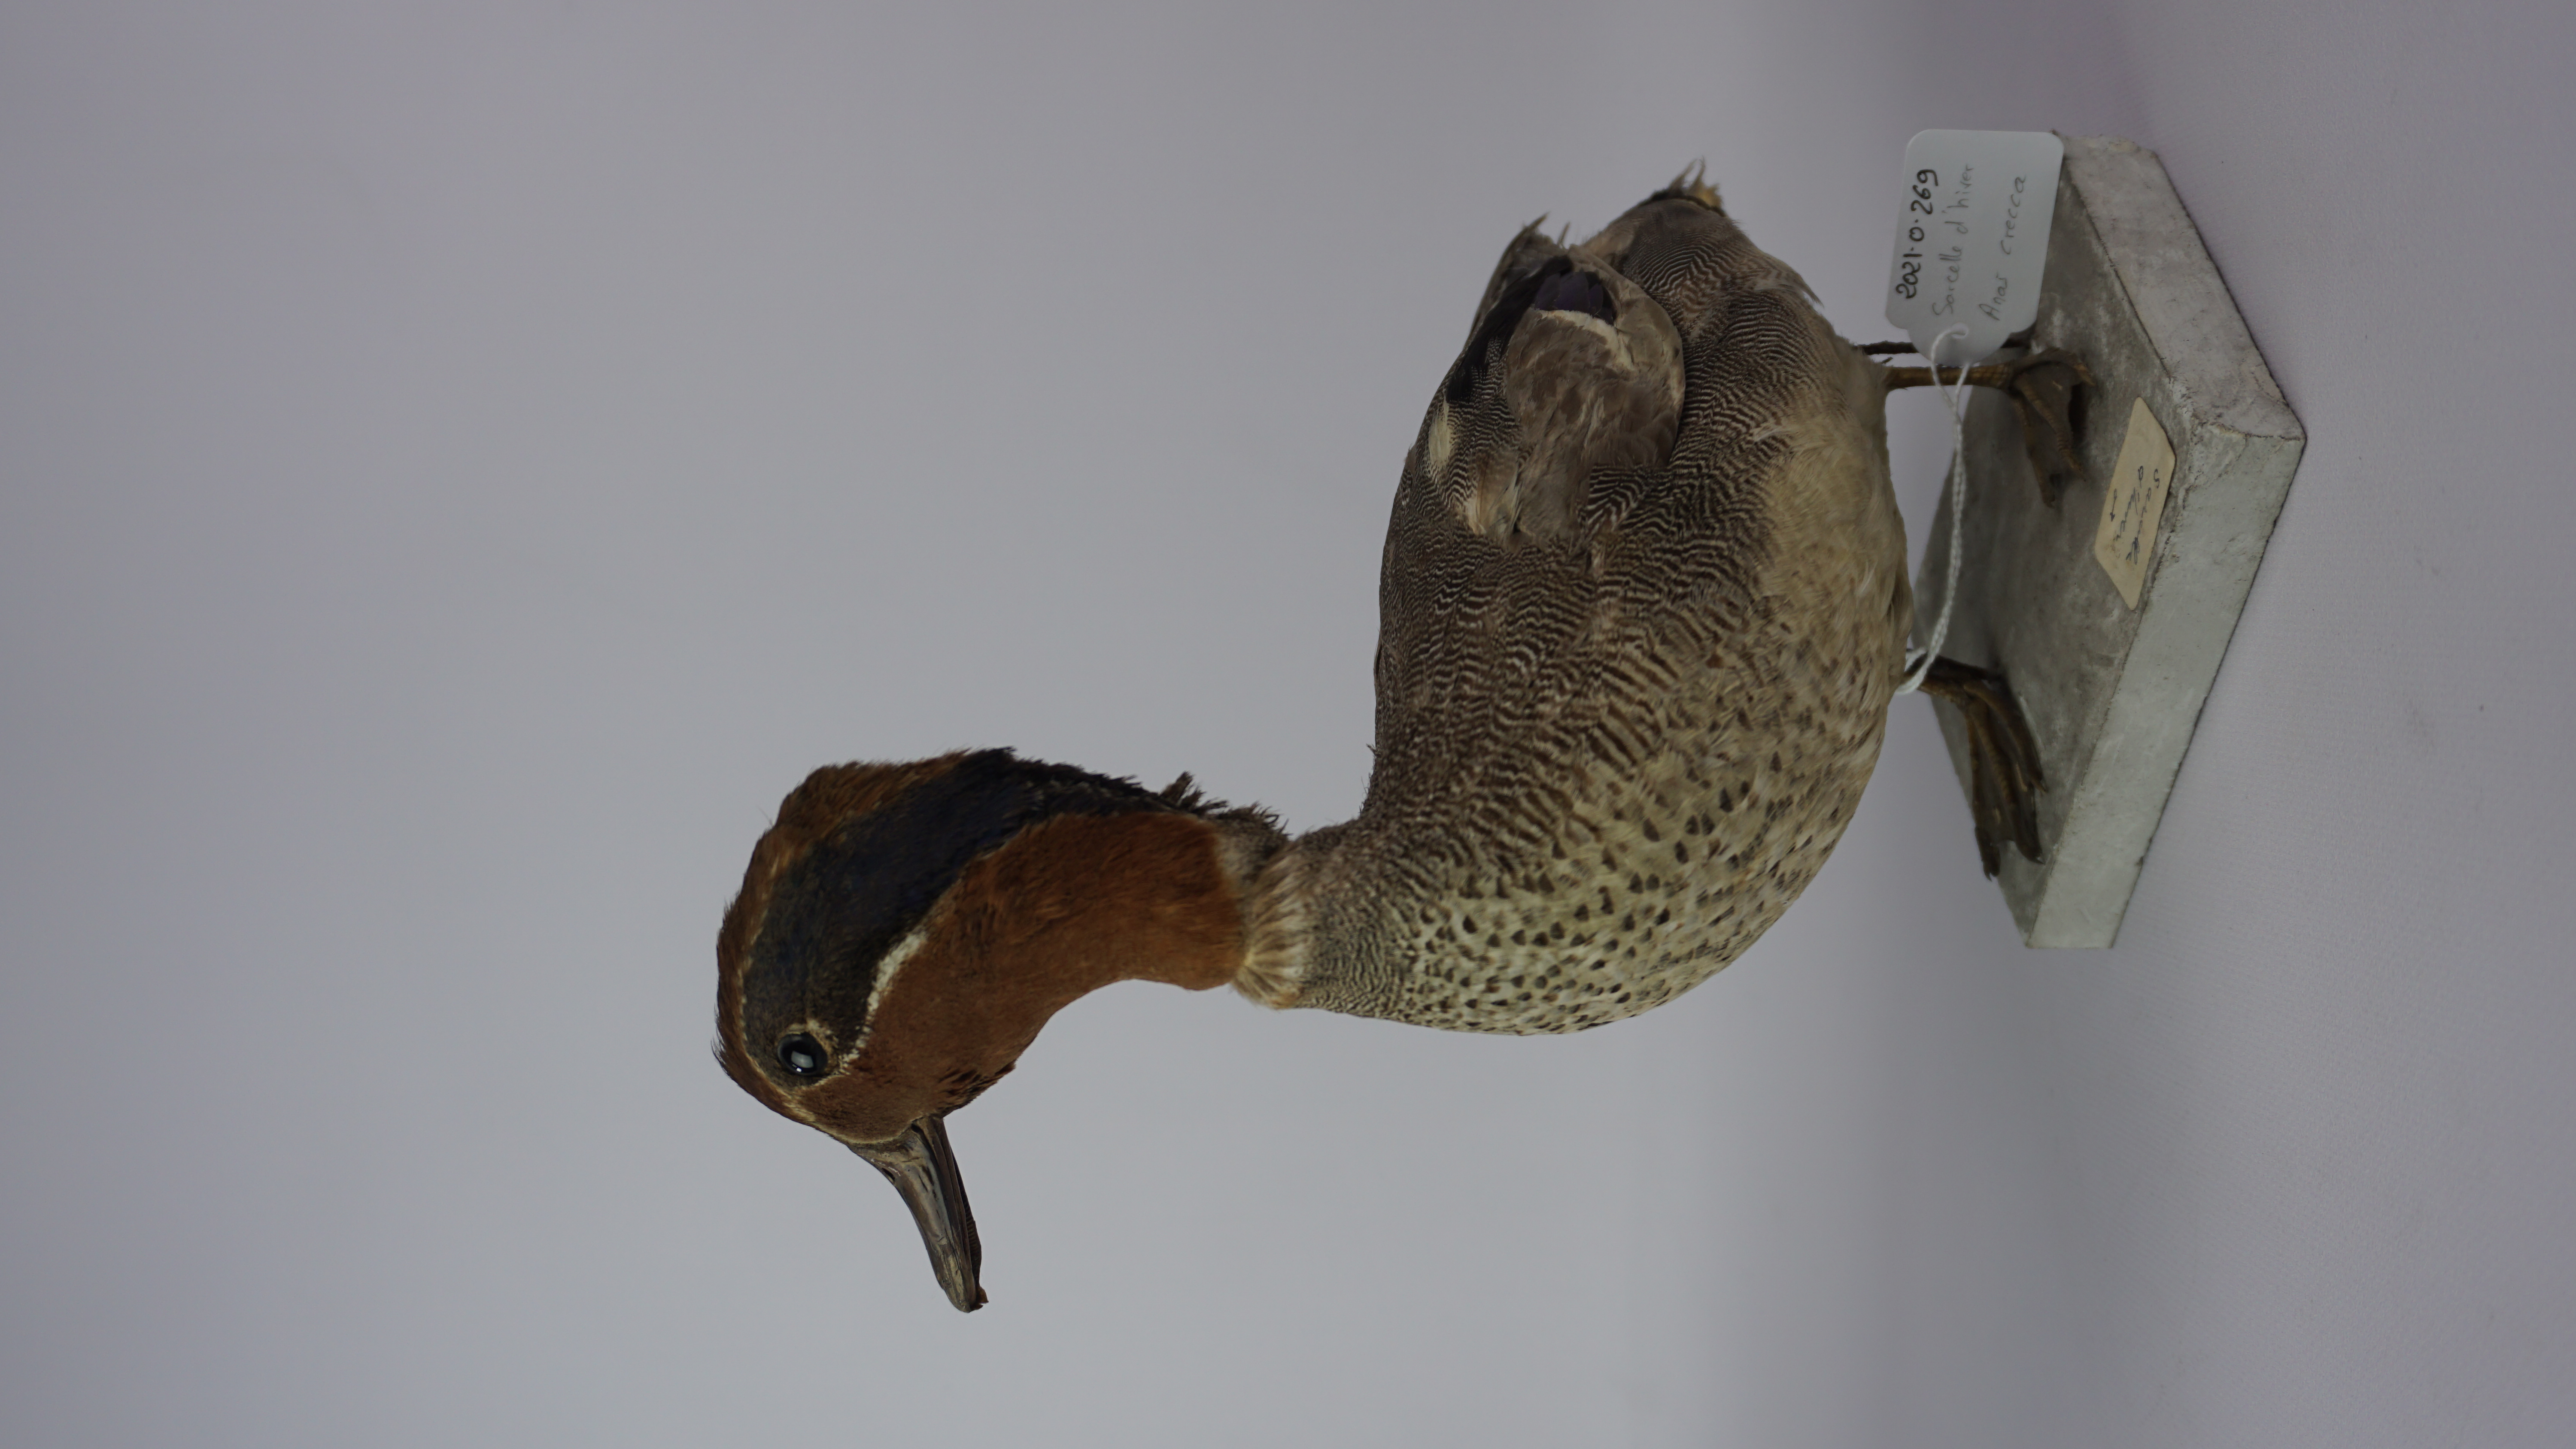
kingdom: Animalia
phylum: Chordata
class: Aves
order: Anseriformes
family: Anatidae
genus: Anas
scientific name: Anas crecca
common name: Eurasian teal
